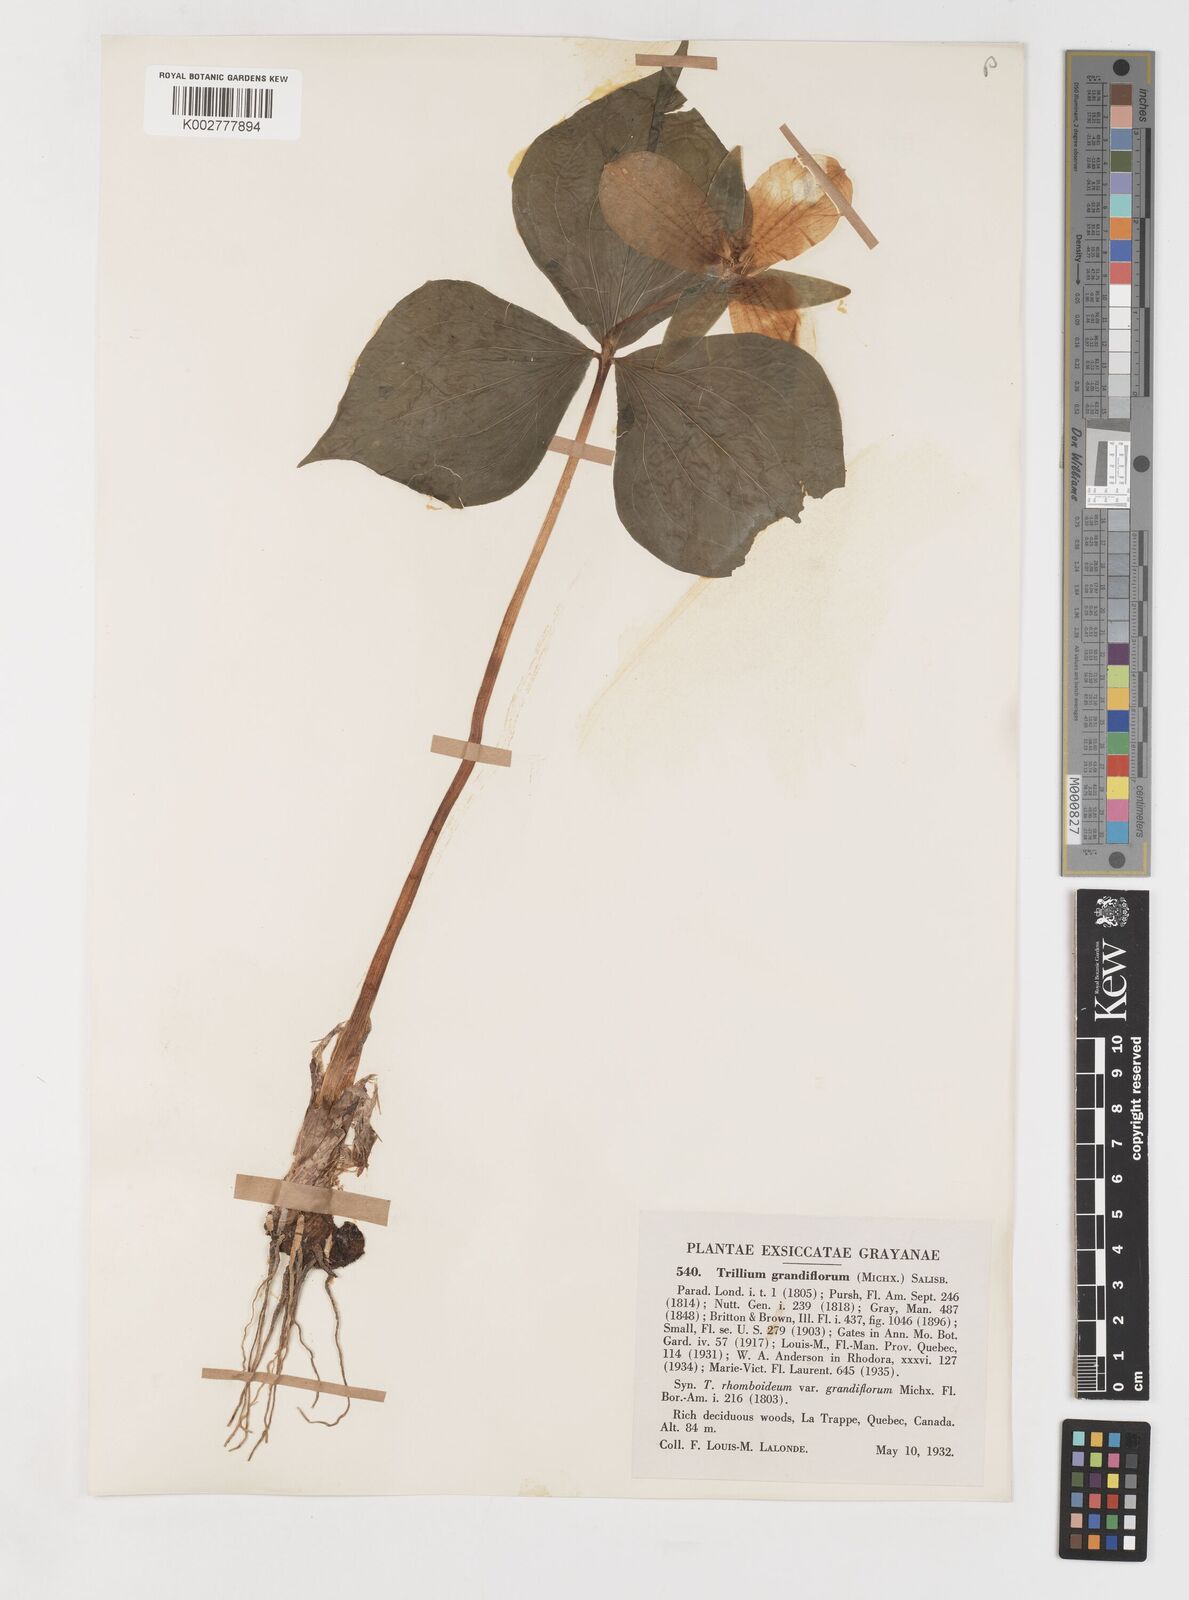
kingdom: Plantae
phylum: Tracheophyta
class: Liliopsida
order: Liliales
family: Melanthiaceae
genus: Trillium
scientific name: Trillium grandiflorum
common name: Great white trillium
